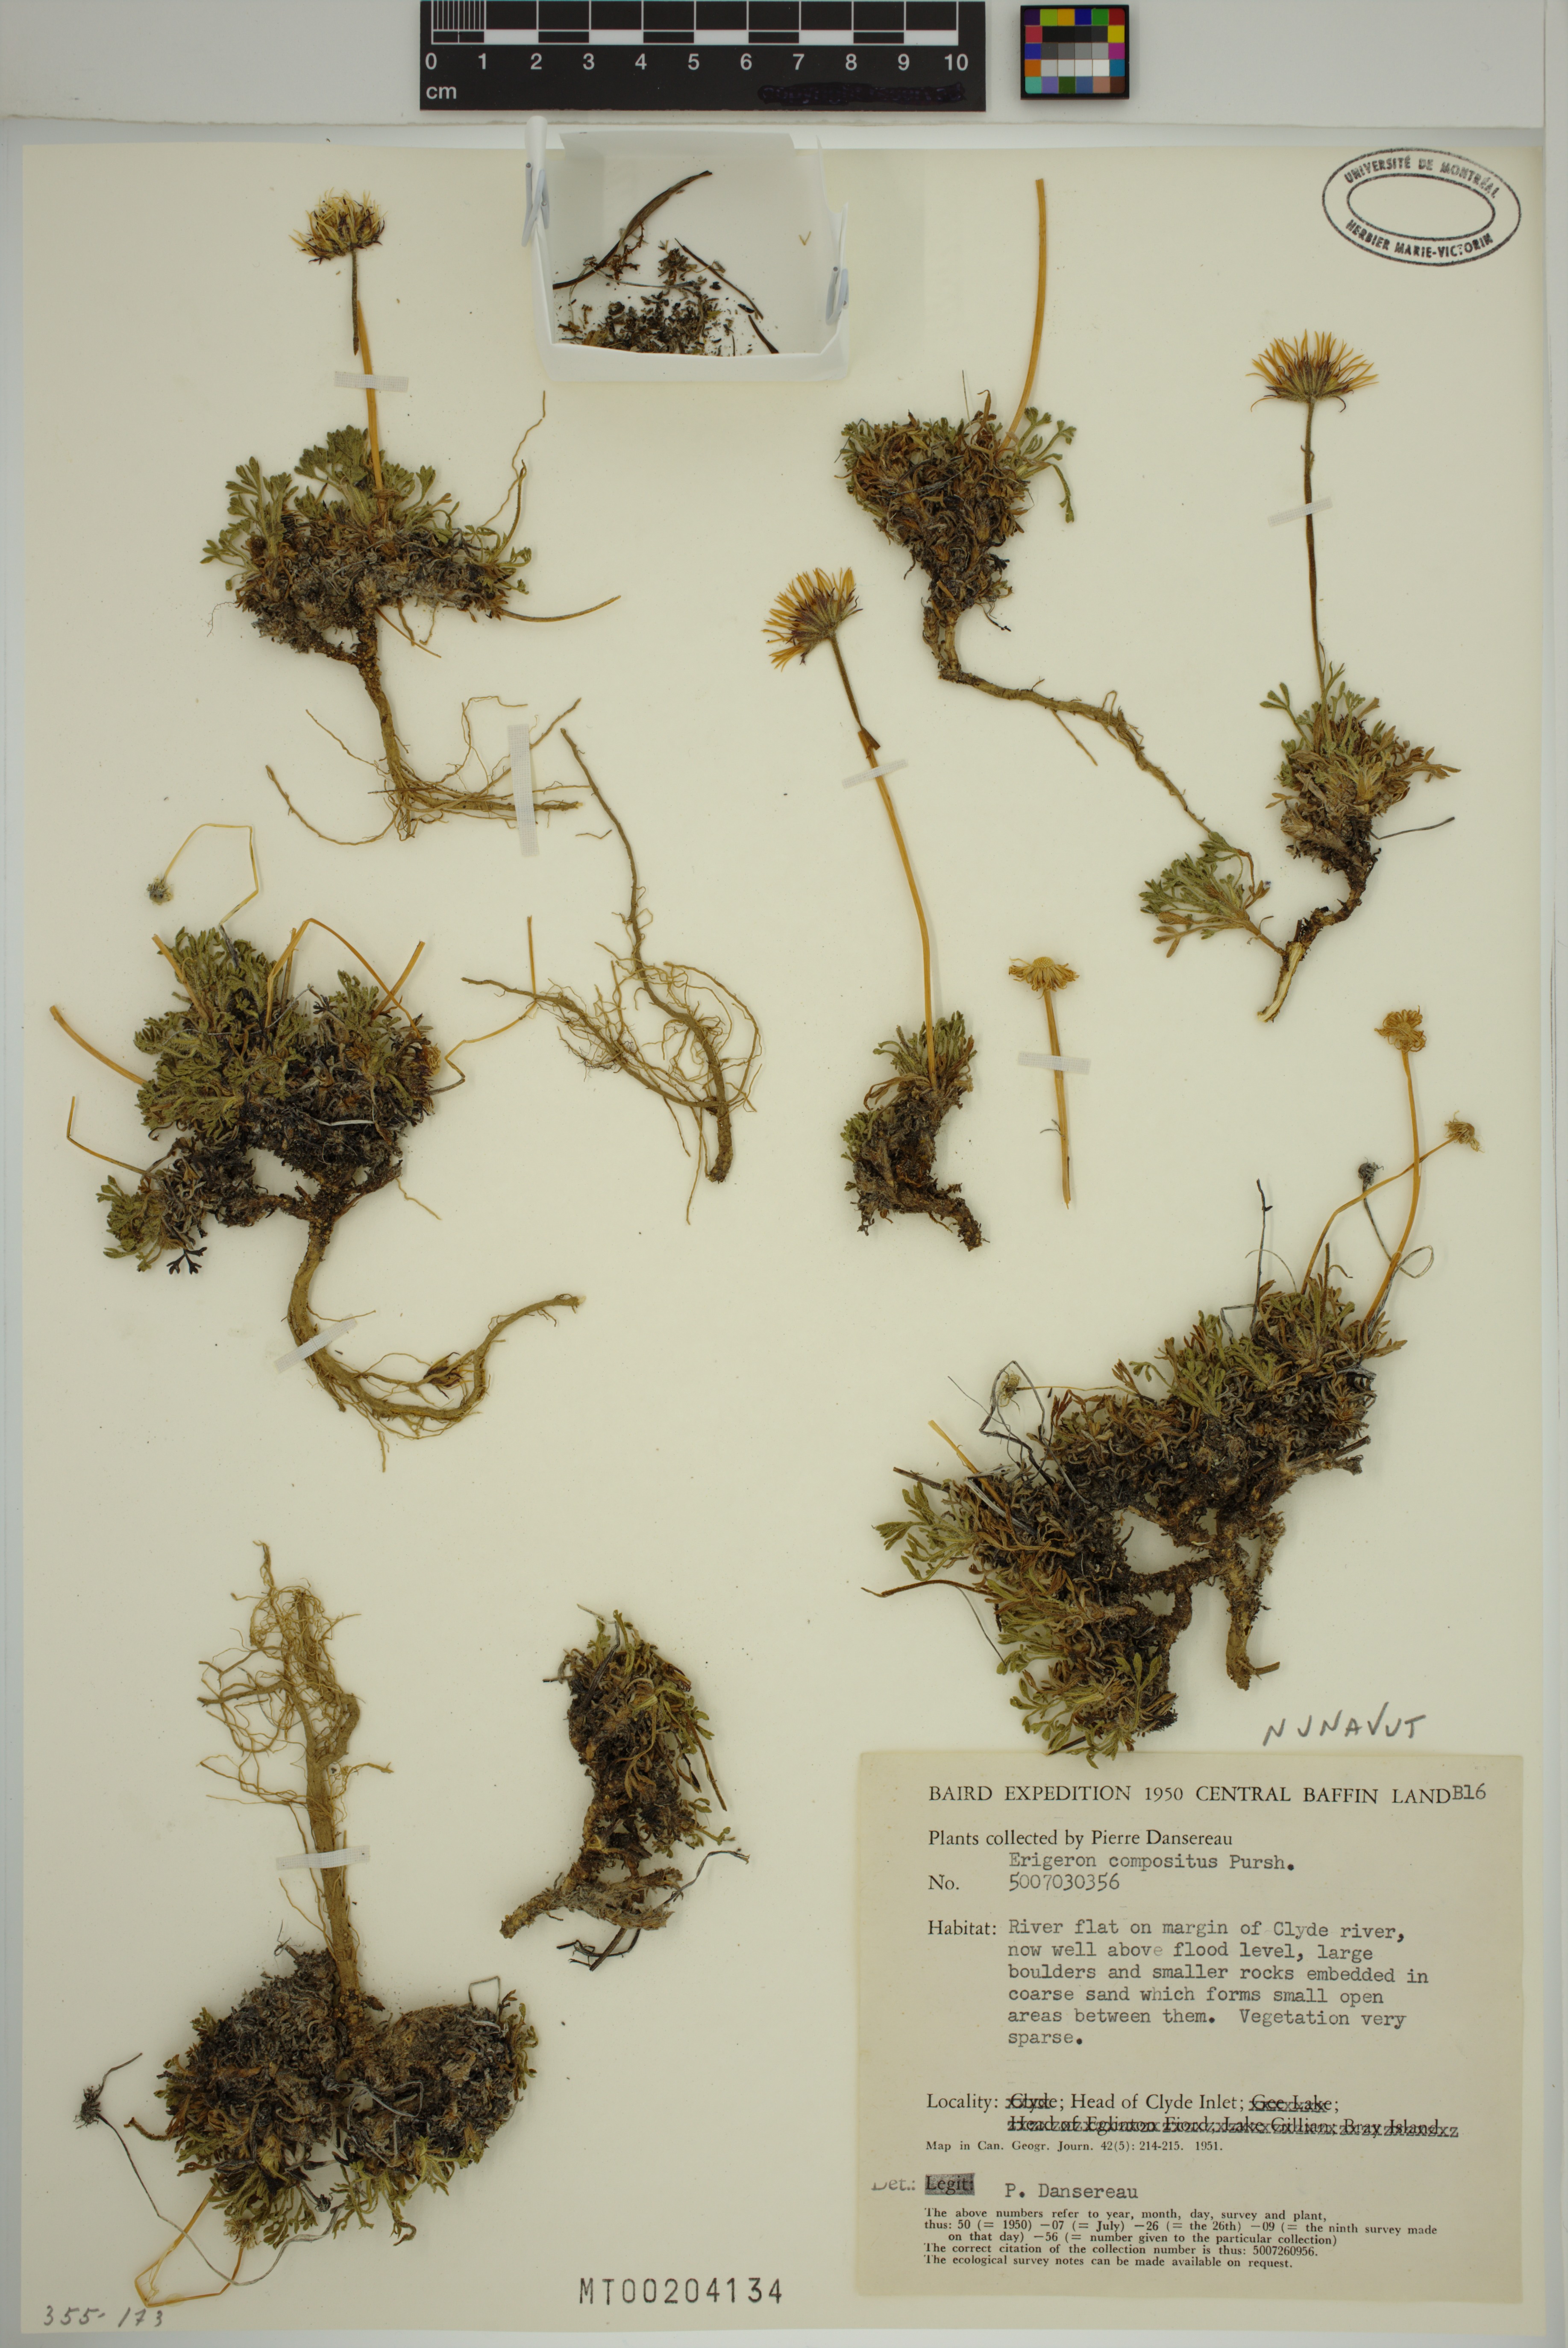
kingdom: Plantae
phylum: Tracheophyta
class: Magnoliopsida
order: Asterales
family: Asteraceae
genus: Erigeron
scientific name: Erigeron compositus
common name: Dwarf mountain fleabane
